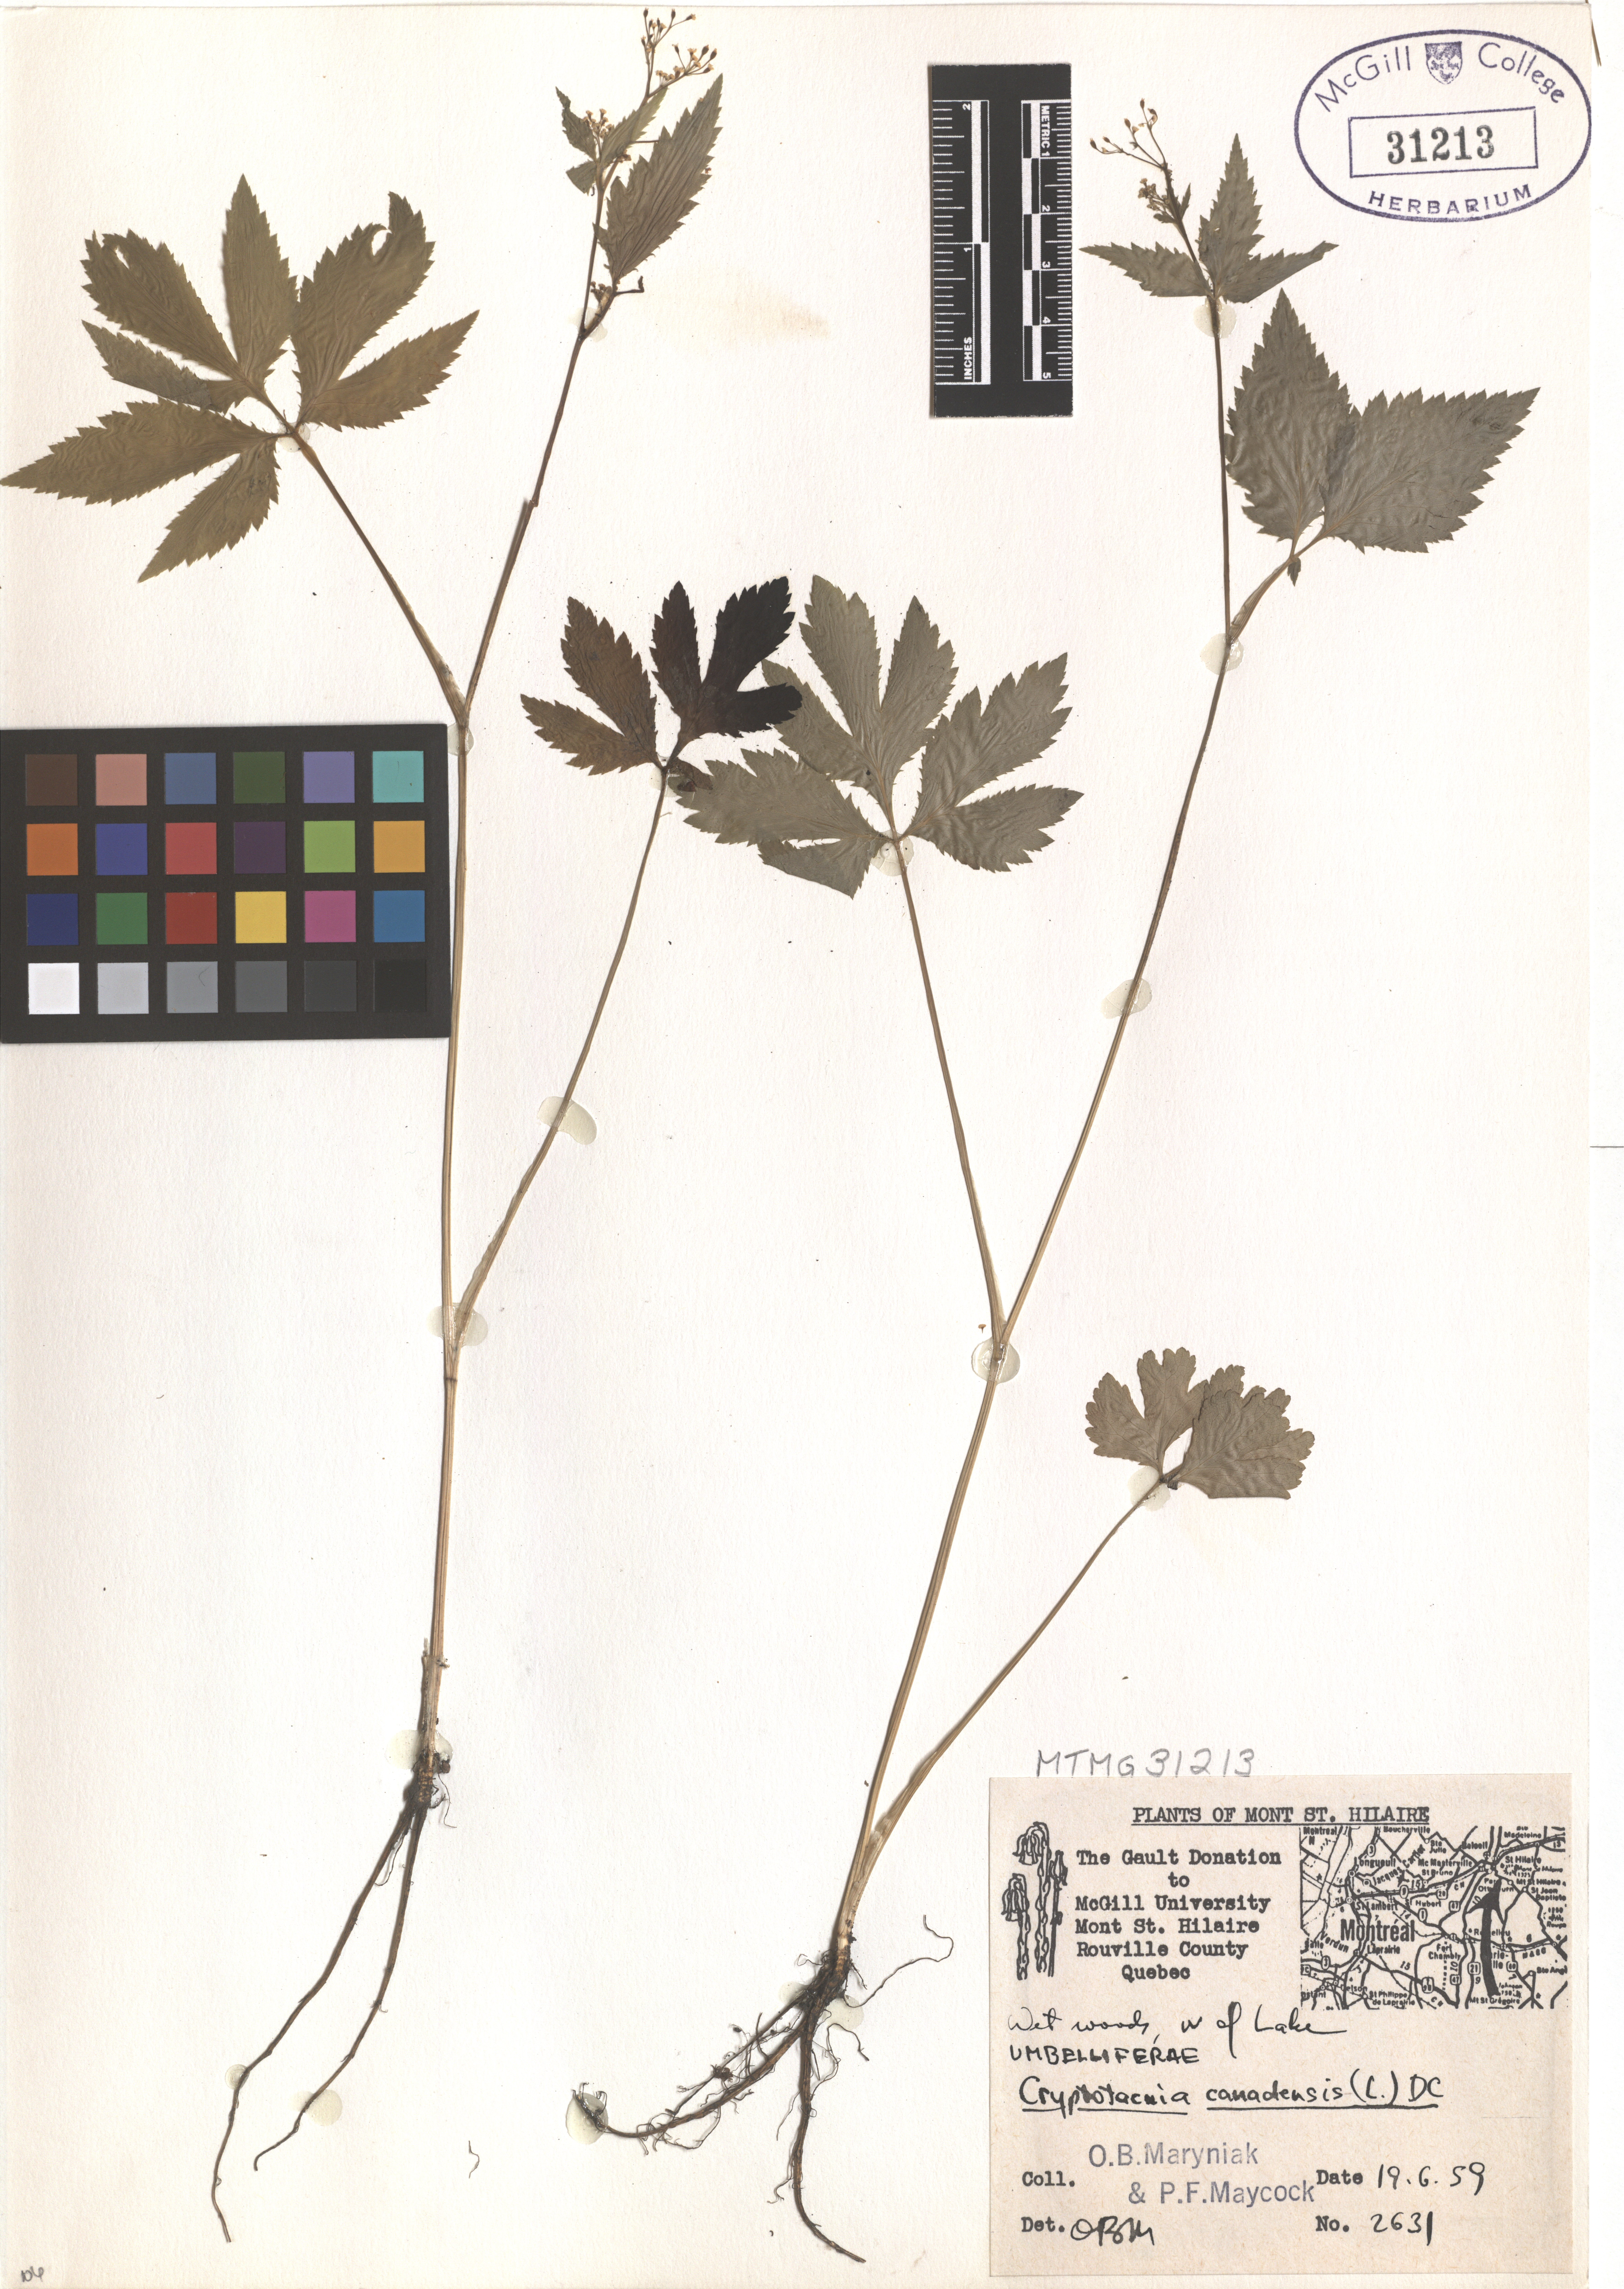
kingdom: Plantae
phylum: Tracheophyta
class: Magnoliopsida
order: Apiales
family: Apiaceae
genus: Cryptotaenia
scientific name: Cryptotaenia canadensis
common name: Honewort
